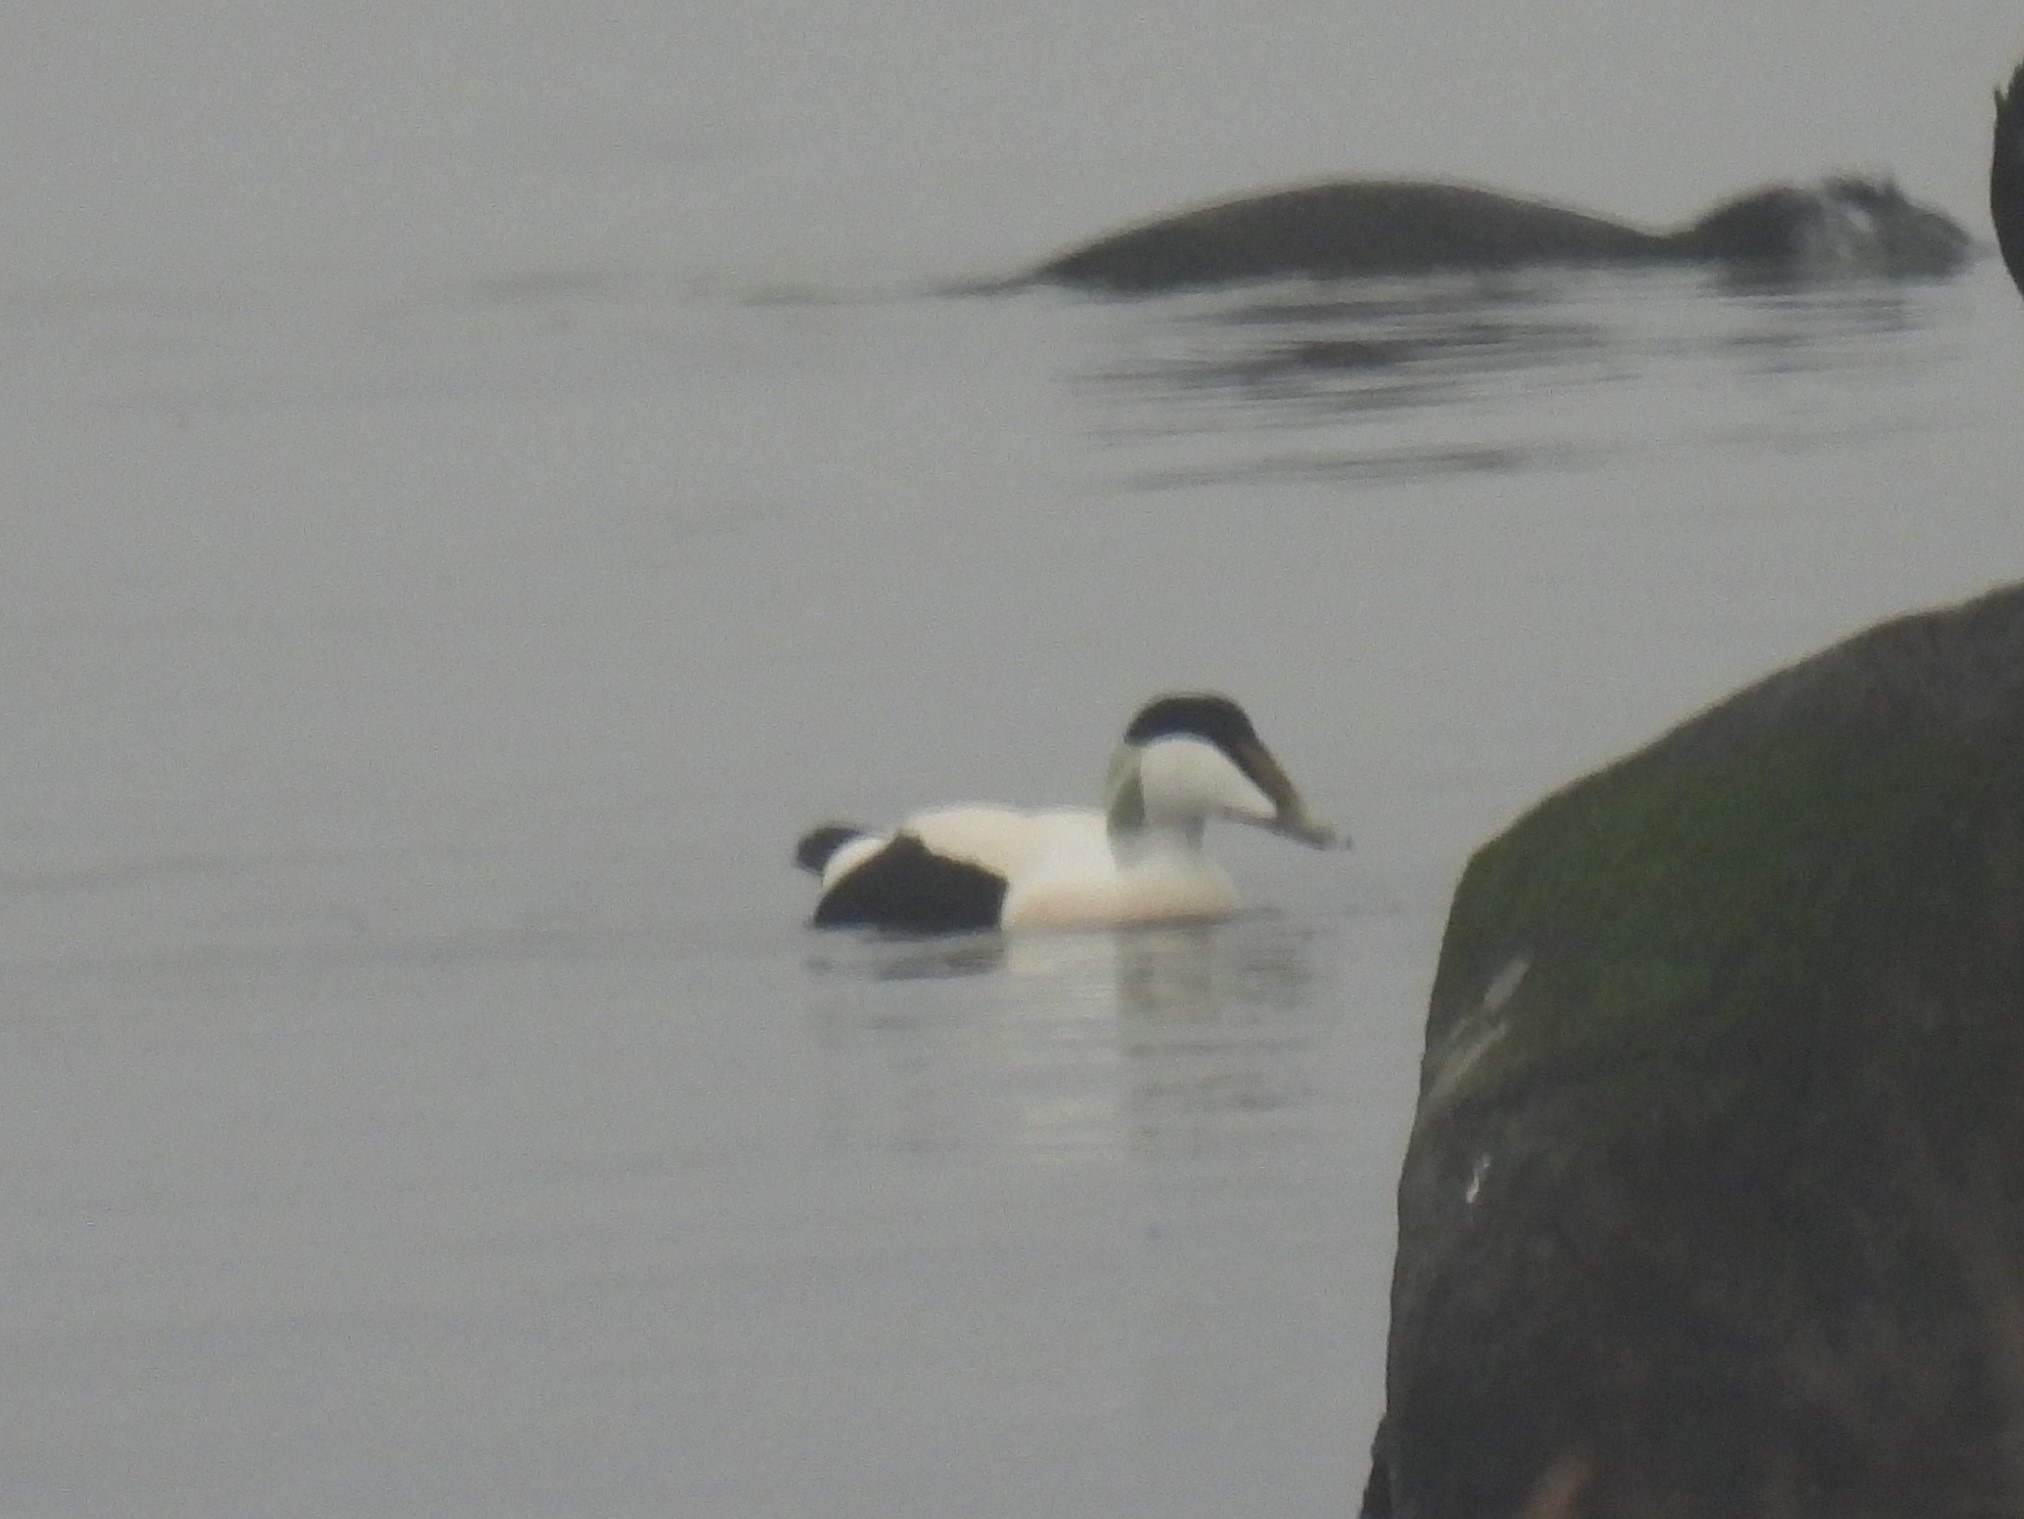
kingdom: Animalia
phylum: Chordata
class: Aves
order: Anseriformes
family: Anatidae
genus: Somateria
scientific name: Somateria mollissima
